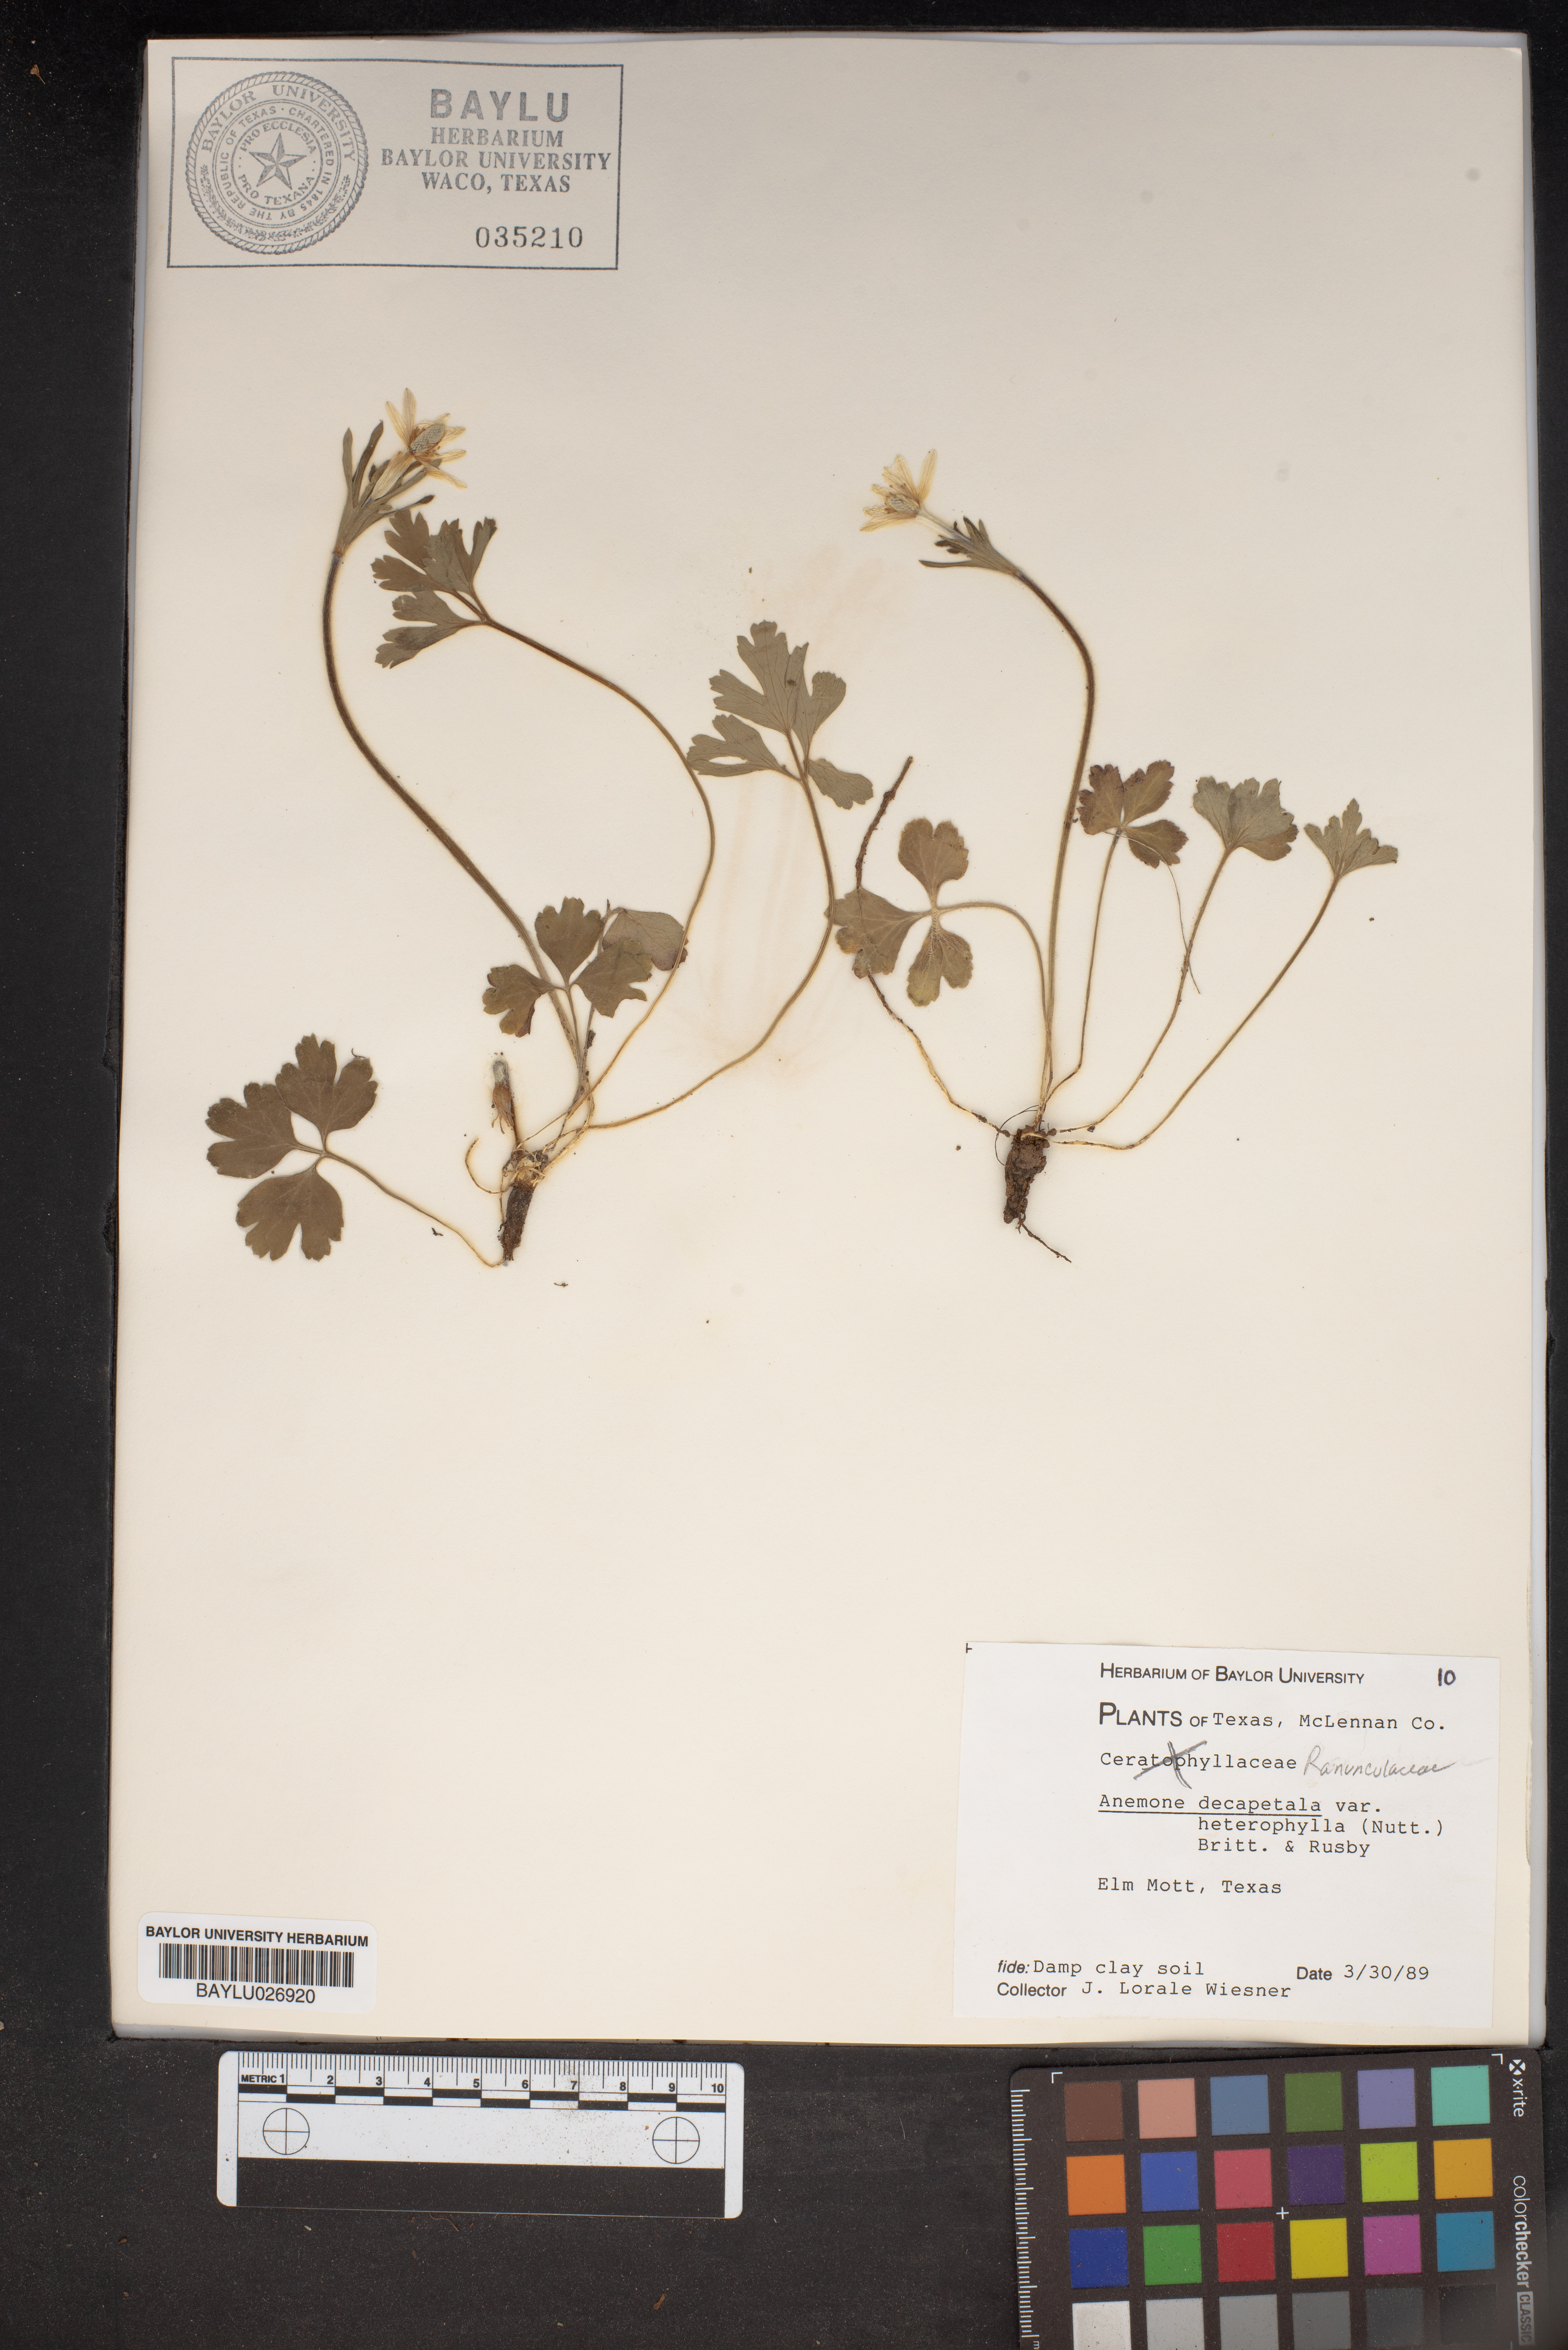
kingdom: Plantae
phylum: Tracheophyta
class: Magnoliopsida
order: Ranunculales
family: Ranunculaceae
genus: Anemone
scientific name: Anemone decapetala
